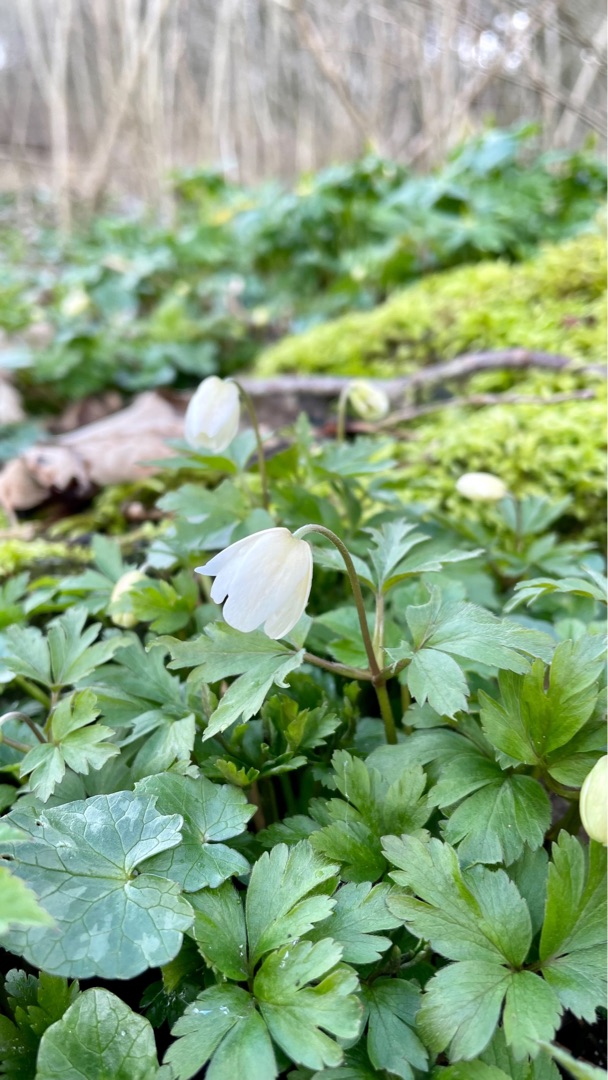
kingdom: Plantae
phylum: Tracheophyta
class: Magnoliopsida
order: Ranunculales
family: Ranunculaceae
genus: Anemone
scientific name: Anemone nemorosa
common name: Hvid anemone
